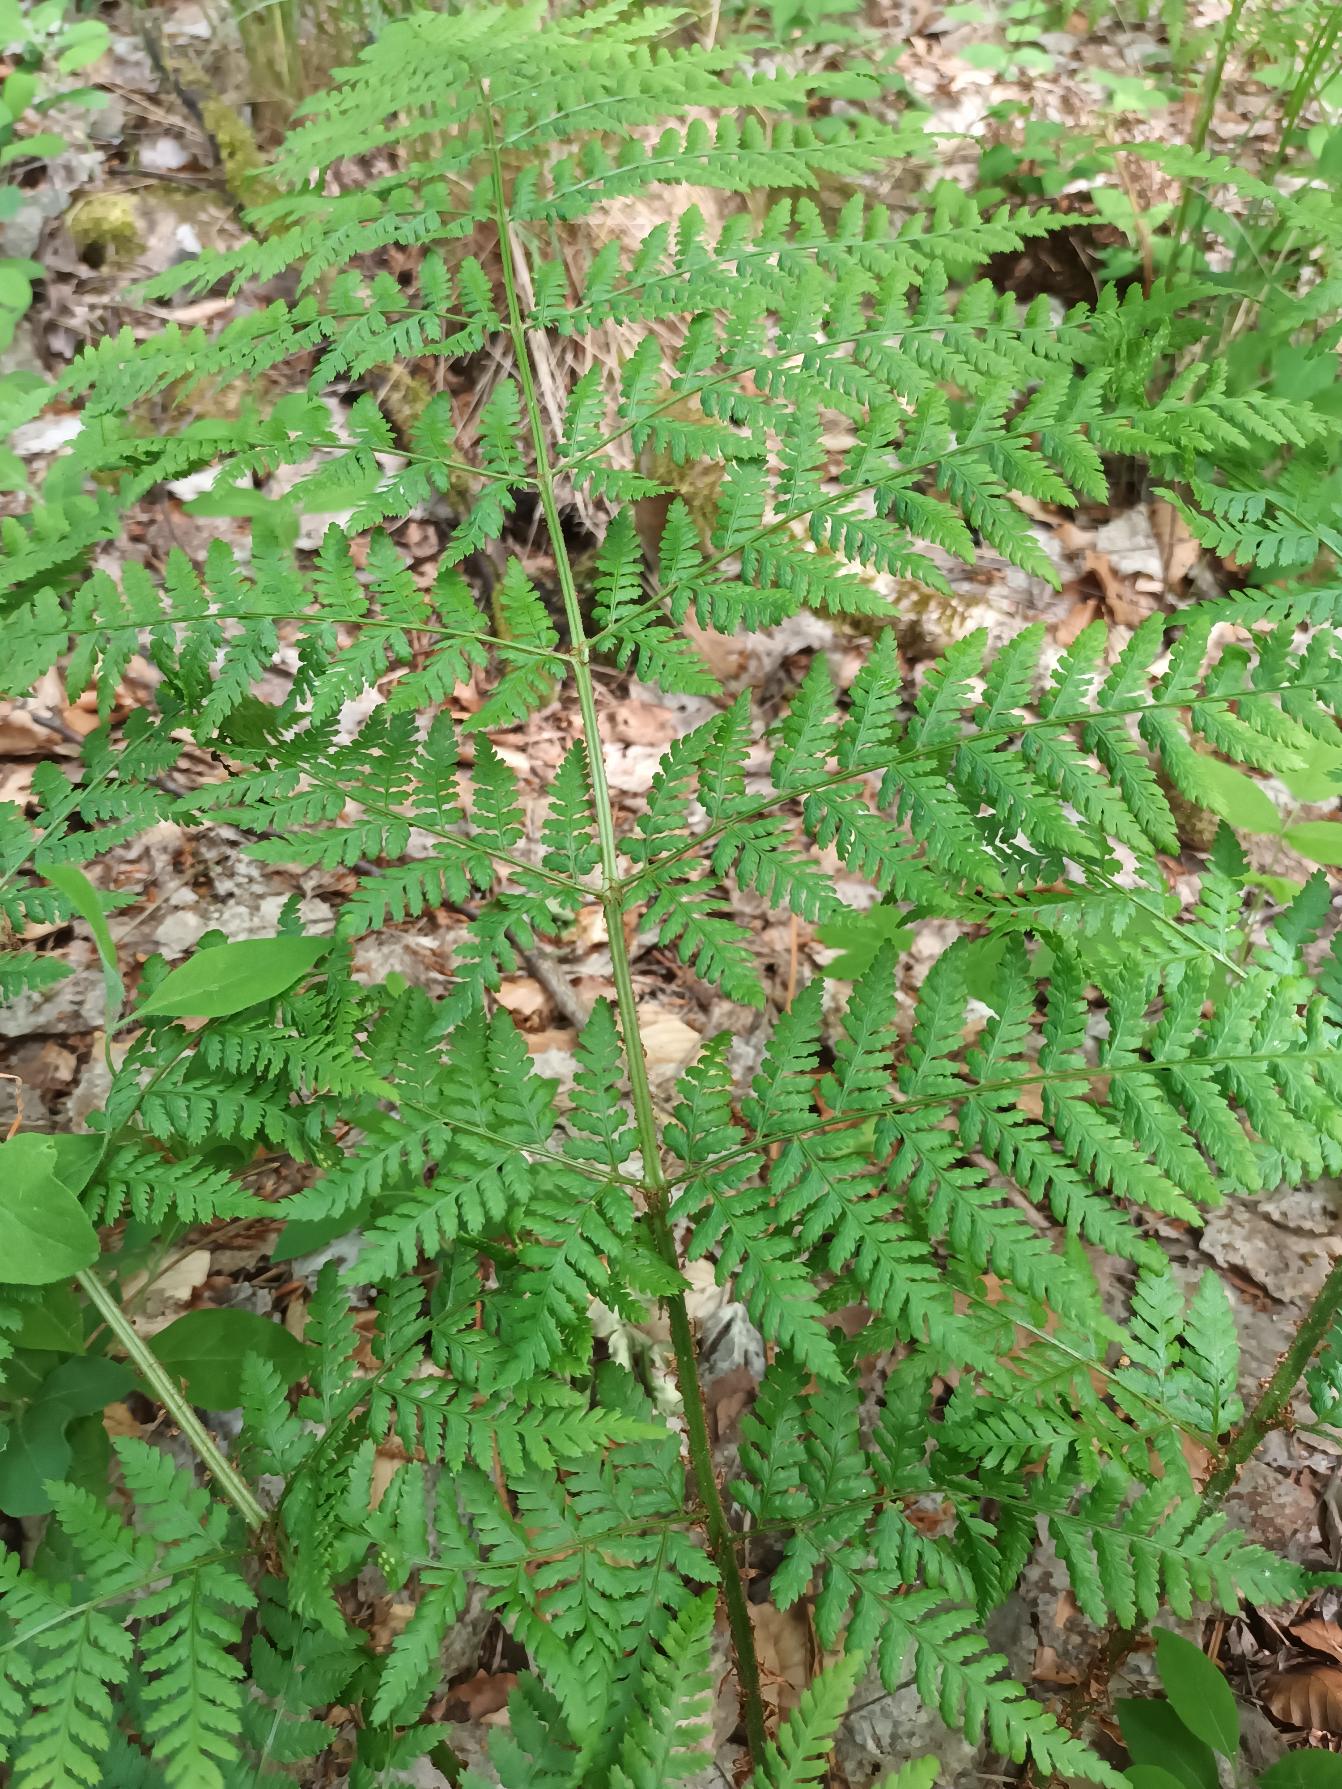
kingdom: Plantae
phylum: Tracheophyta
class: Polypodiopsida
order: Polypodiales
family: Dryopteridaceae
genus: Dryopteris
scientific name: Dryopteris dilatata
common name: Bredbladet mangeløv
